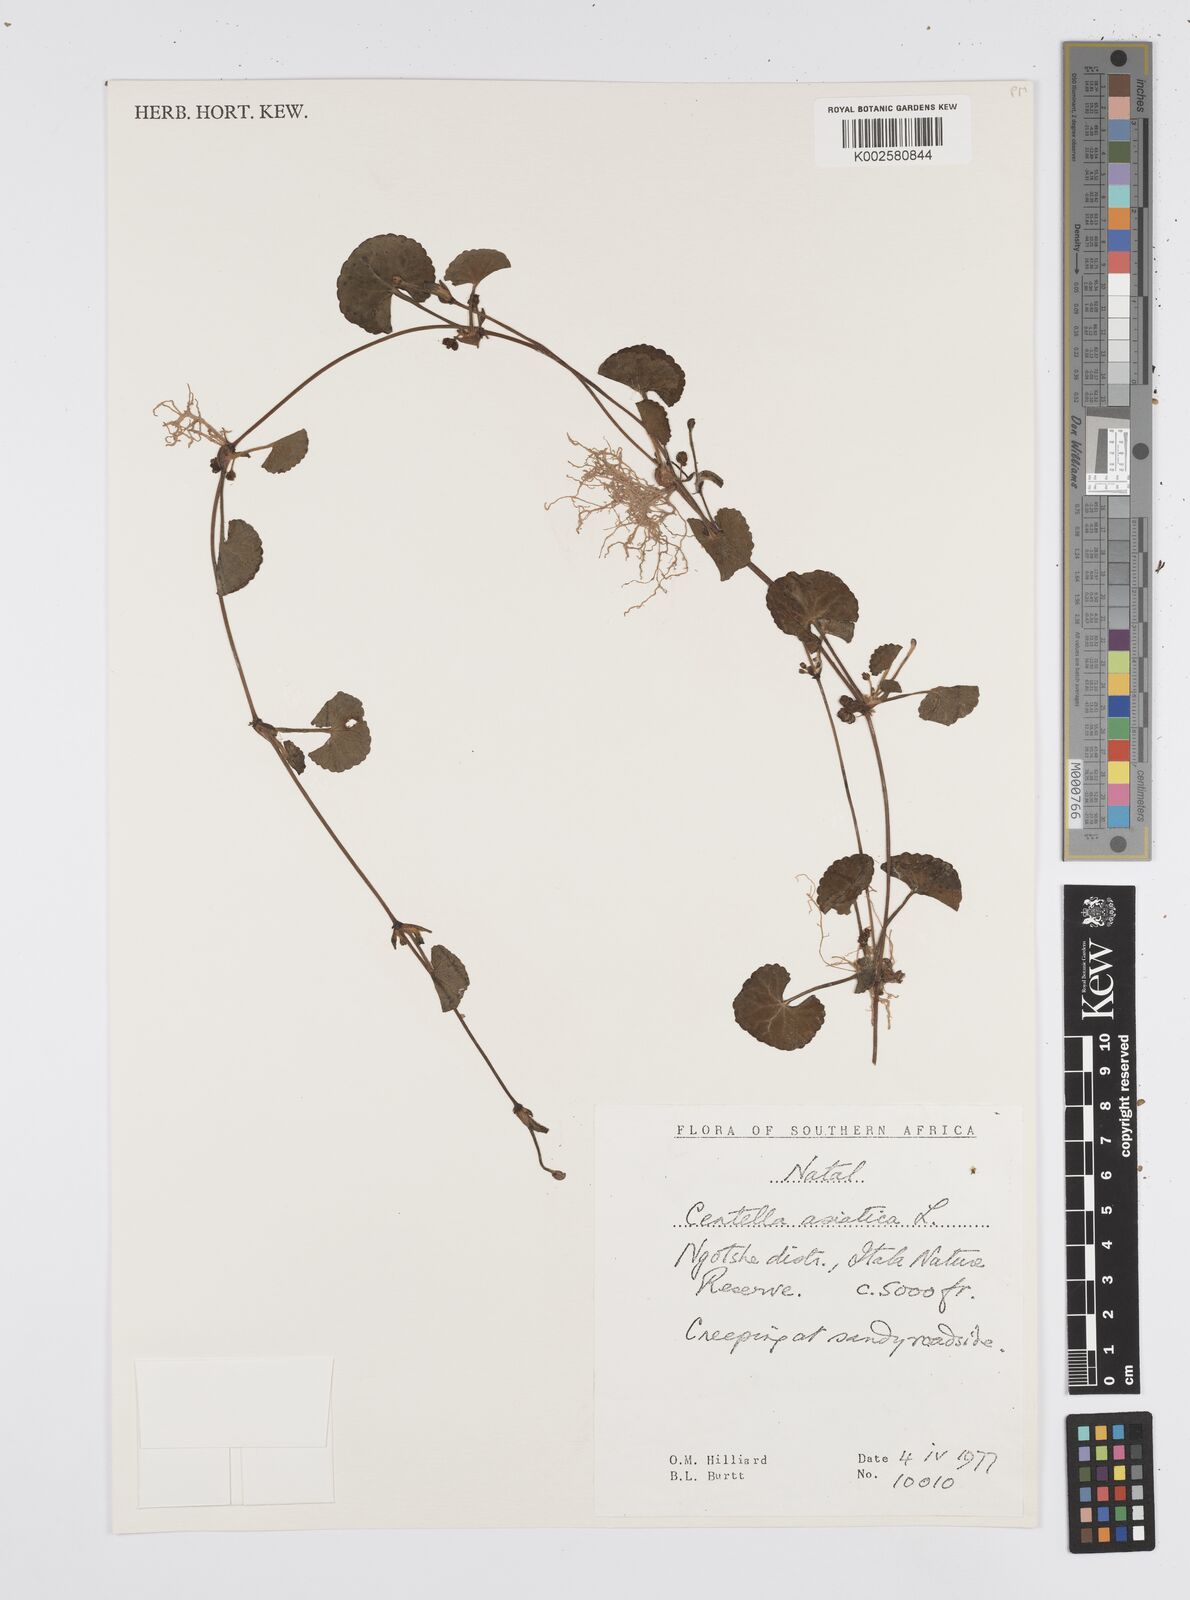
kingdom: Plantae
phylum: Tracheophyta
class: Magnoliopsida
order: Apiales
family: Apiaceae
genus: Centella
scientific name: Centella coriacea
